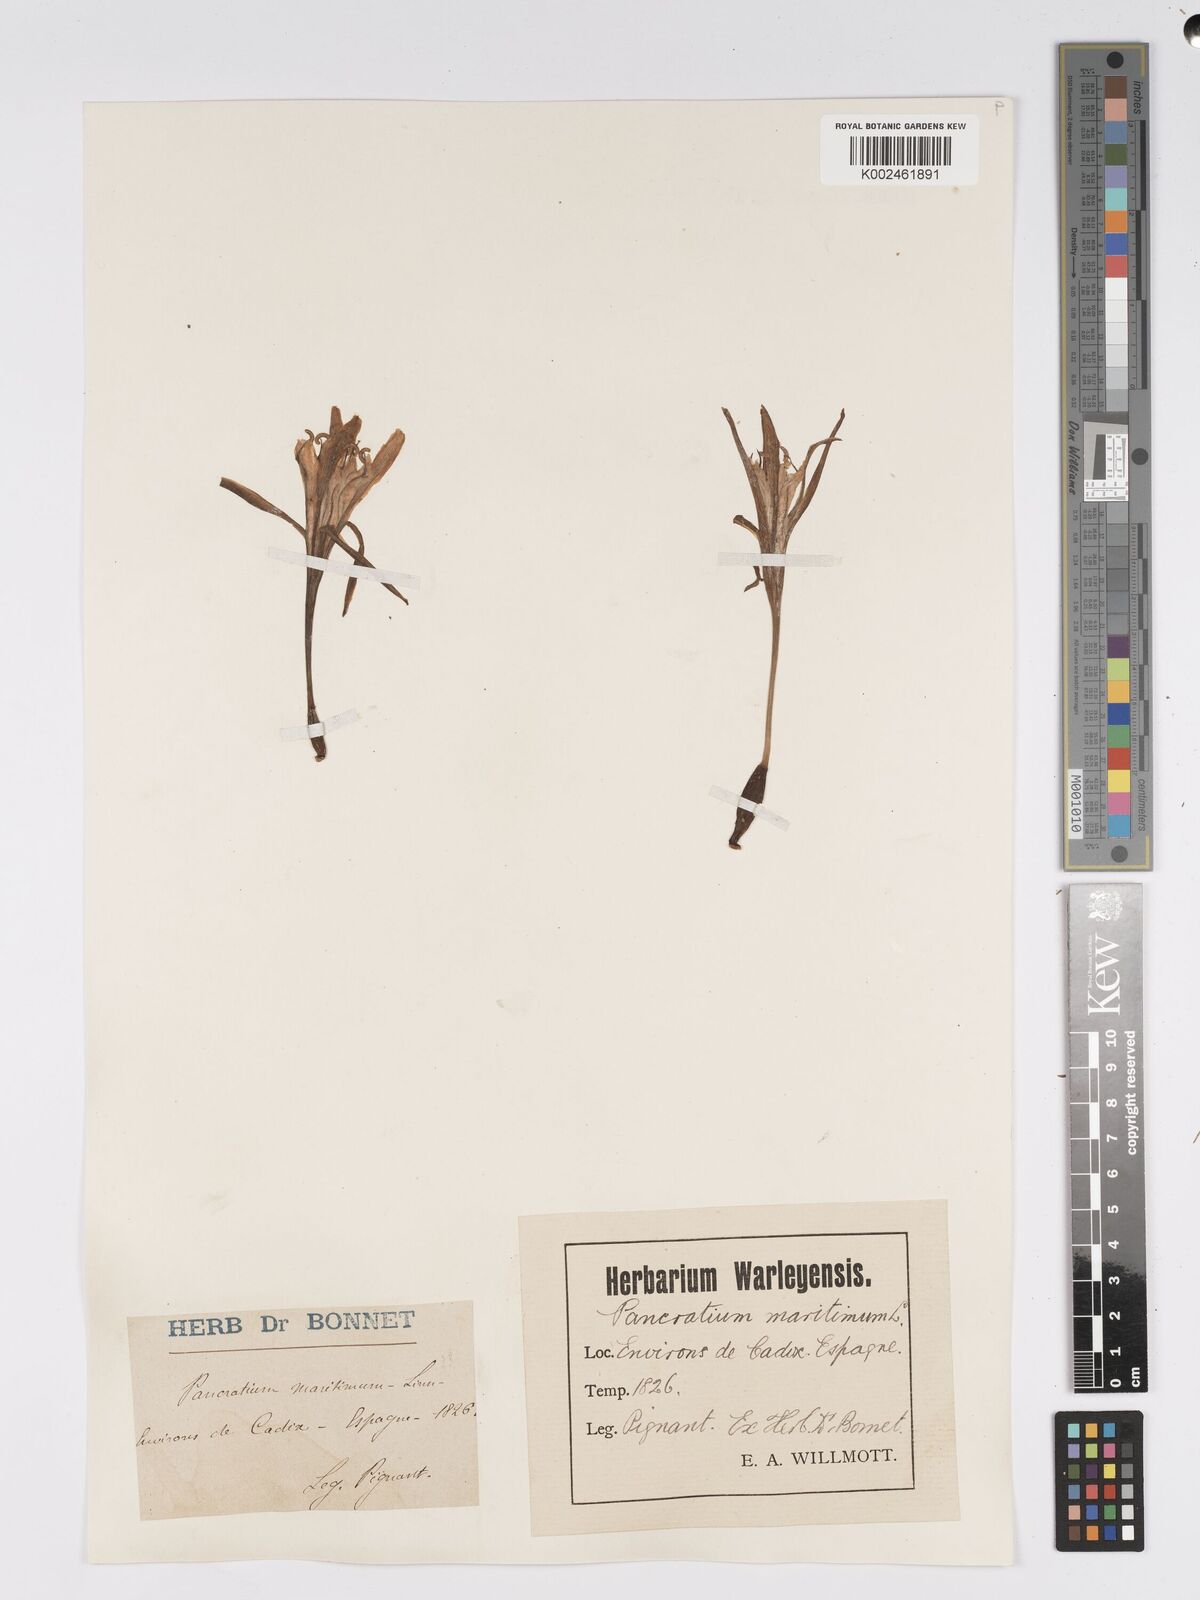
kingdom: Plantae
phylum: Tracheophyta
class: Liliopsida
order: Asparagales
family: Amaryllidaceae
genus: Pancratium
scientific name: Pancratium maritimum
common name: Sea-daffodil
